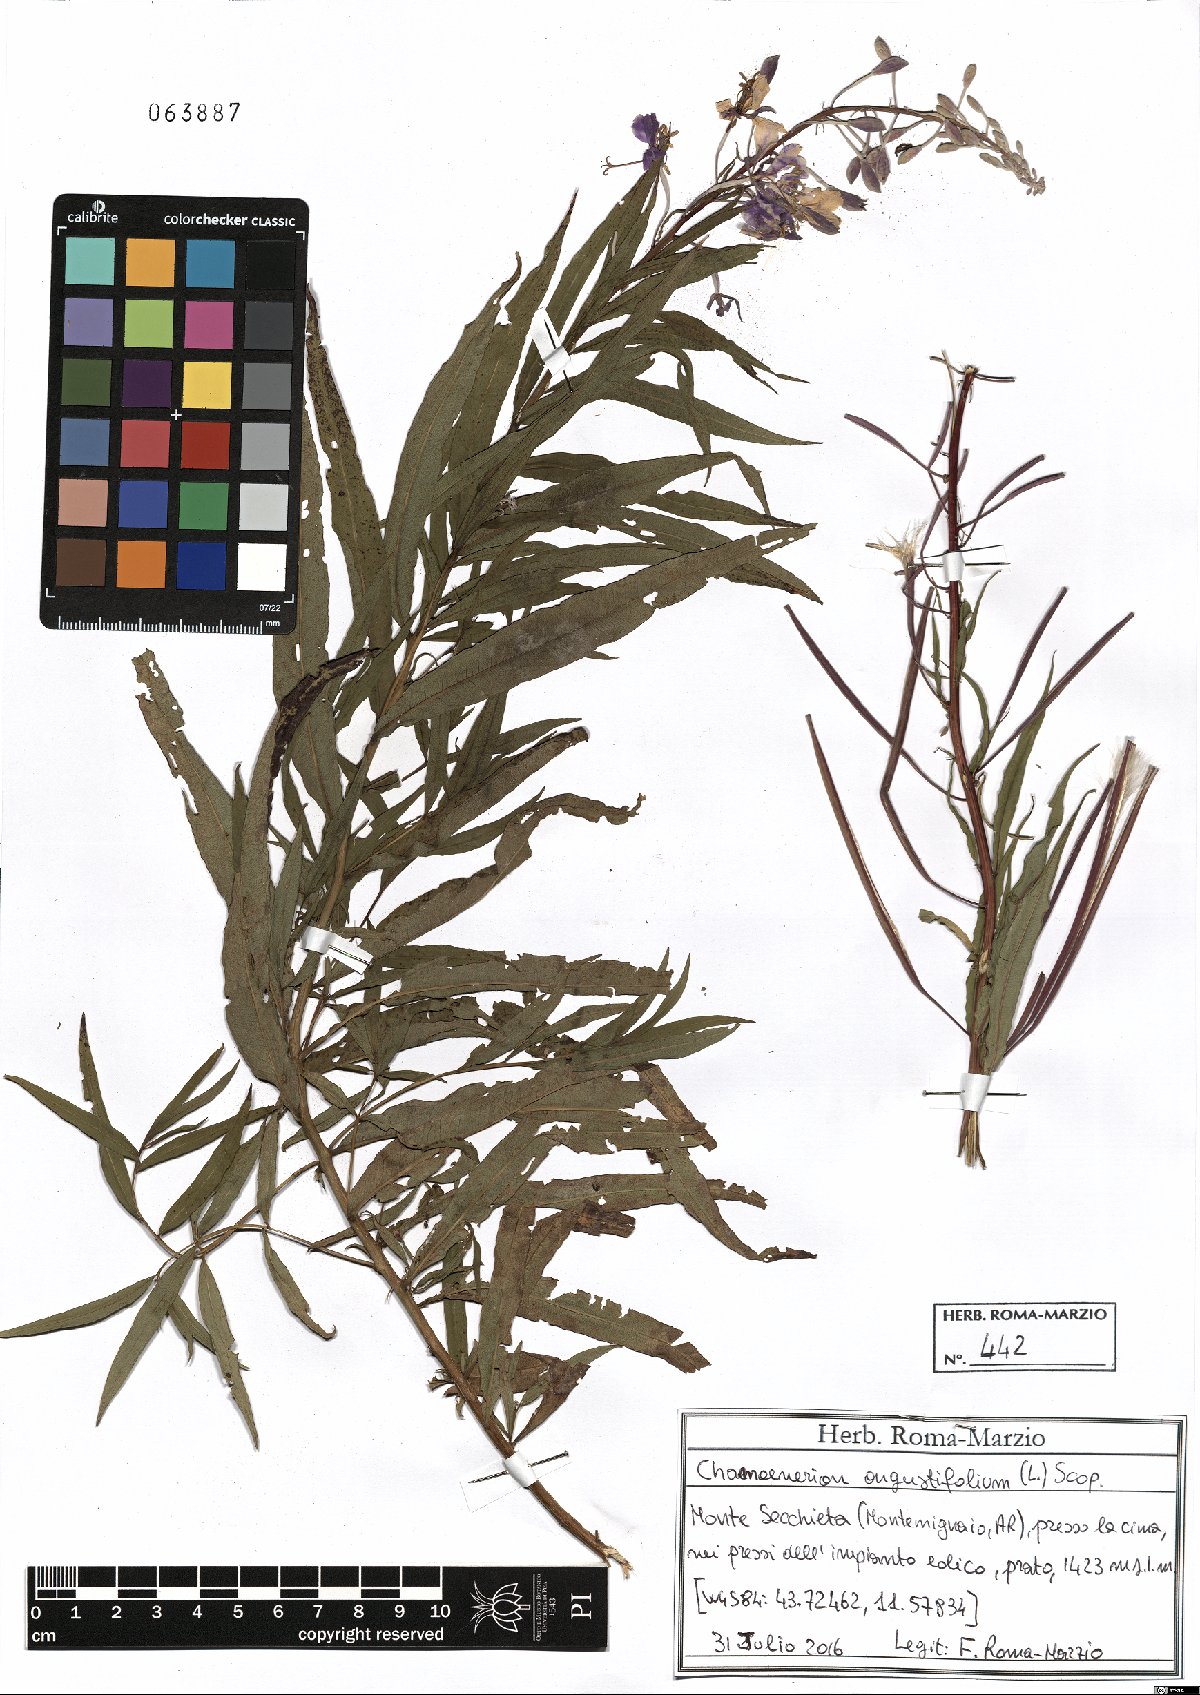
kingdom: Plantae
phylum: Tracheophyta
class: Magnoliopsida
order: Myrtales
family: Onagraceae
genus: Chamaenerion
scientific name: Chamaenerion angustifolium
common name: Fireweed
